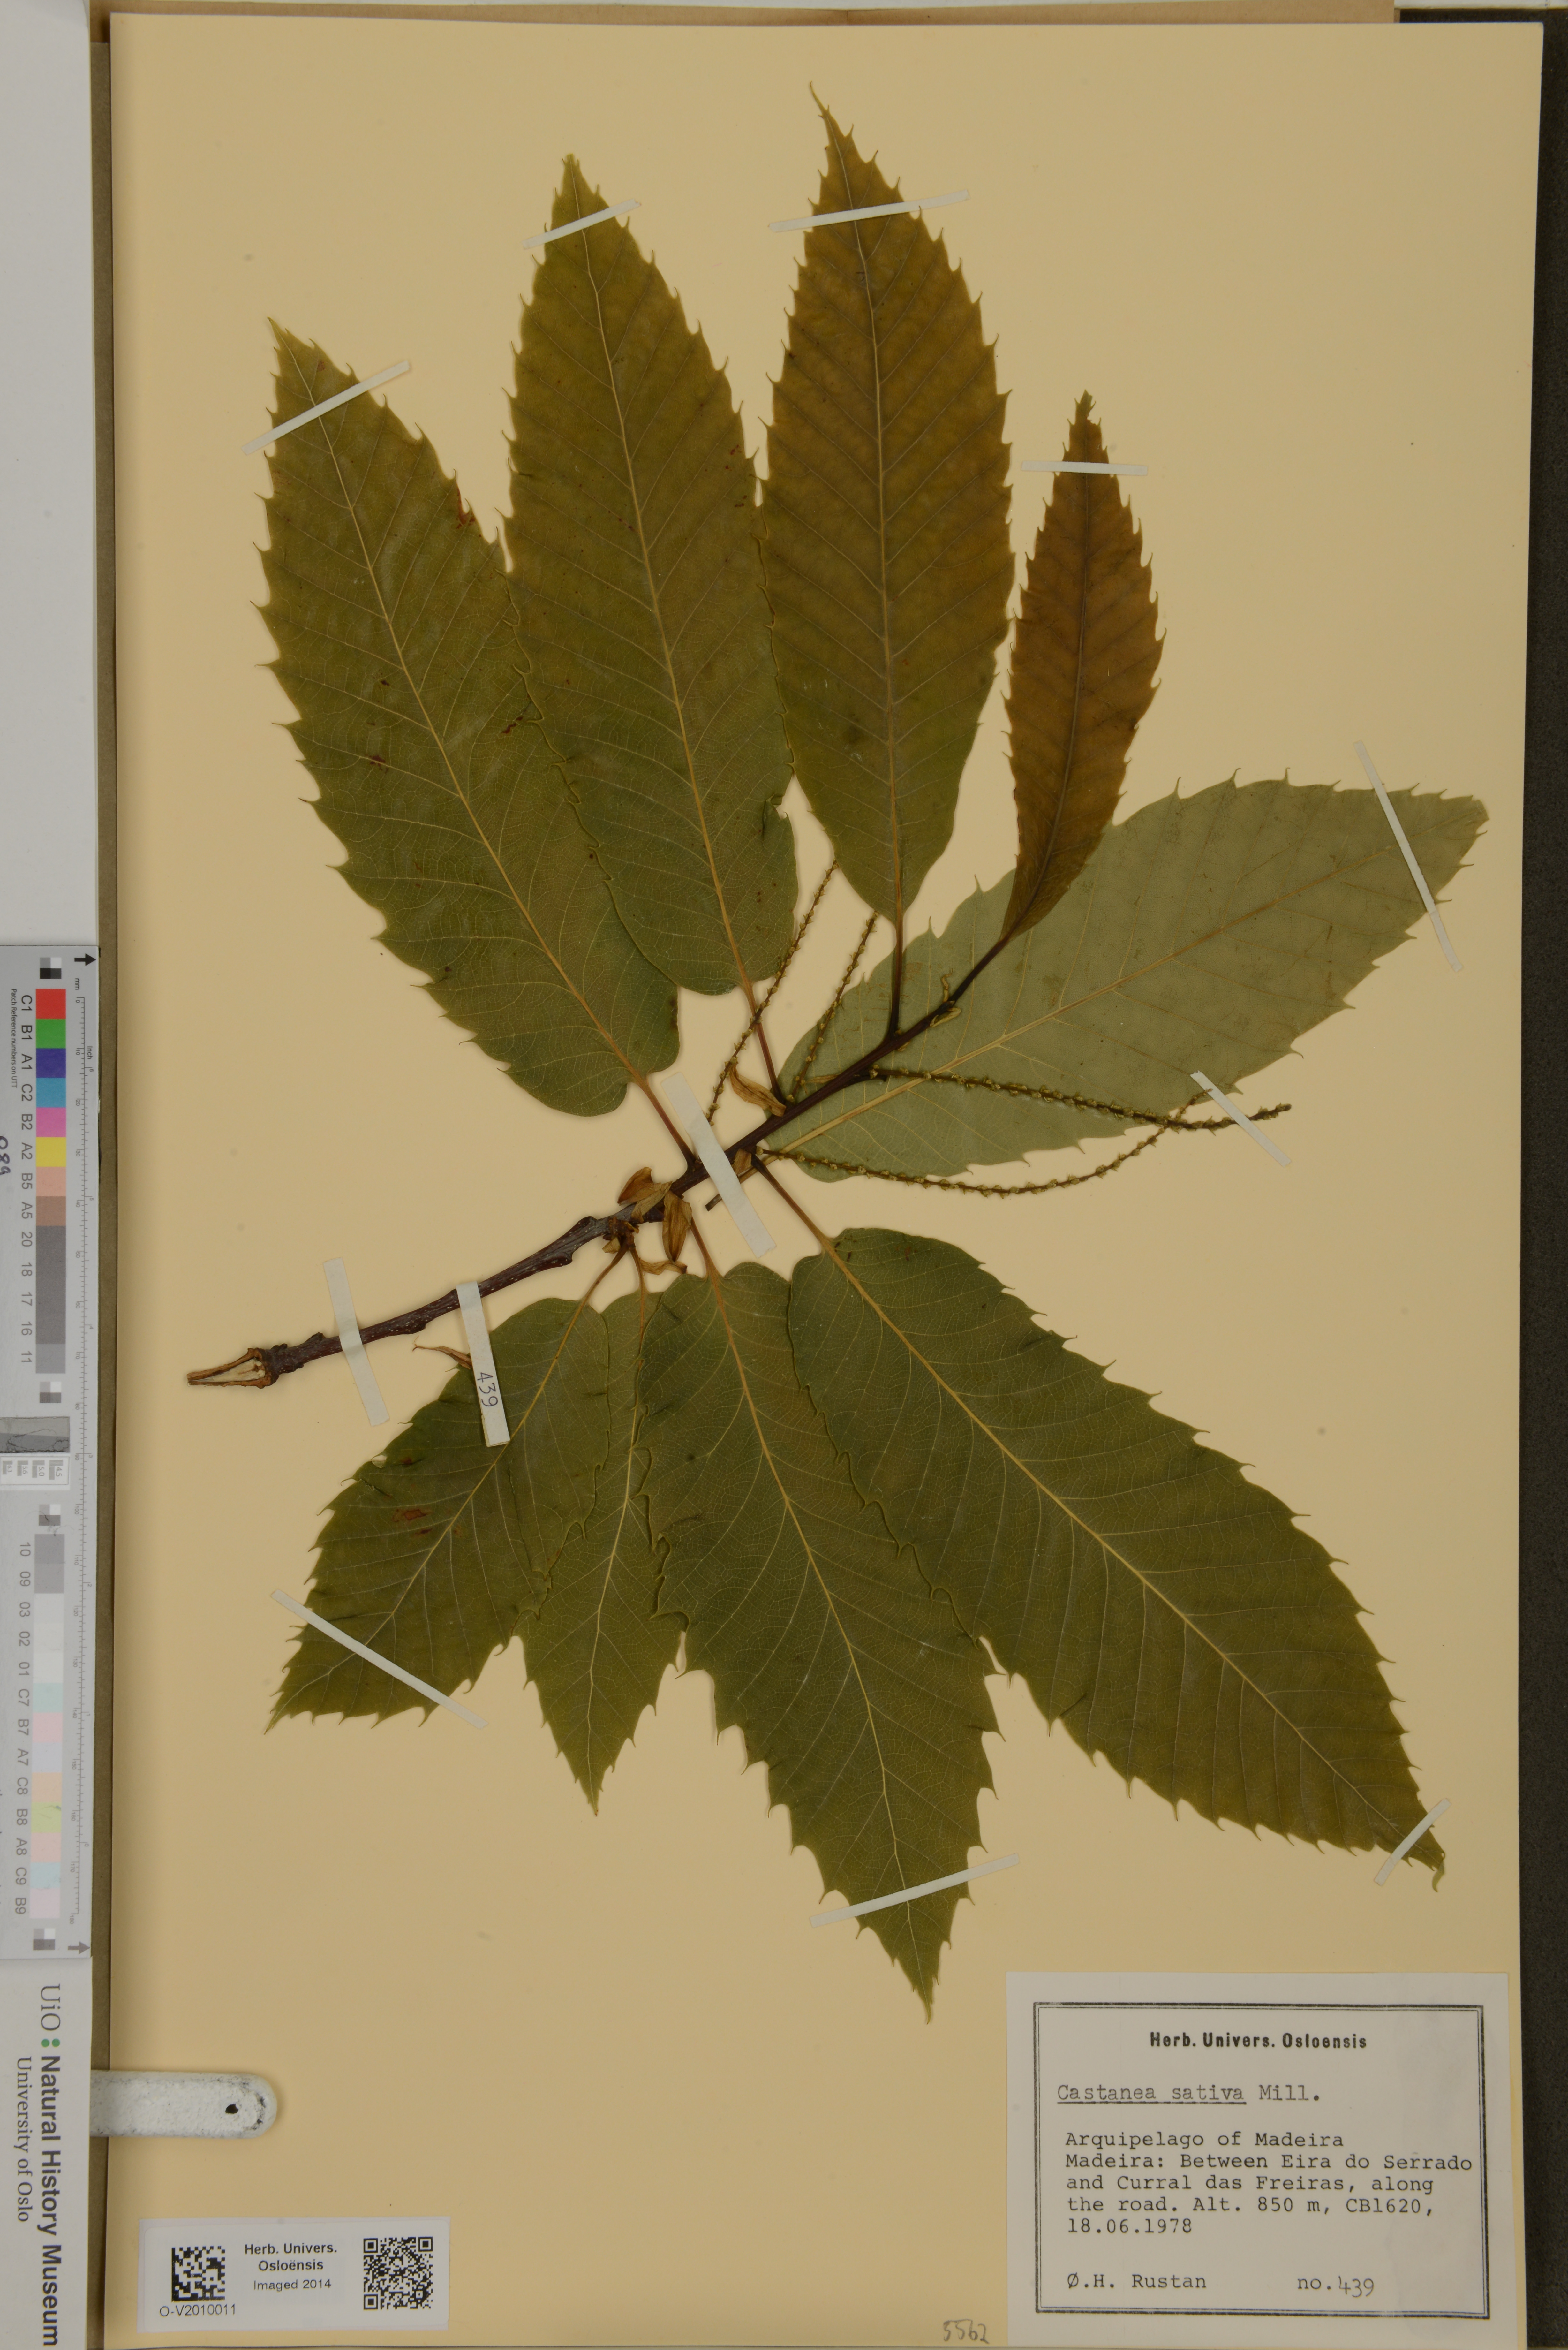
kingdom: Plantae
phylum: Tracheophyta
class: Magnoliopsida
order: Fagales
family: Fagaceae
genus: Castanea
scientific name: Castanea sativa
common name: Sweet chestnut
